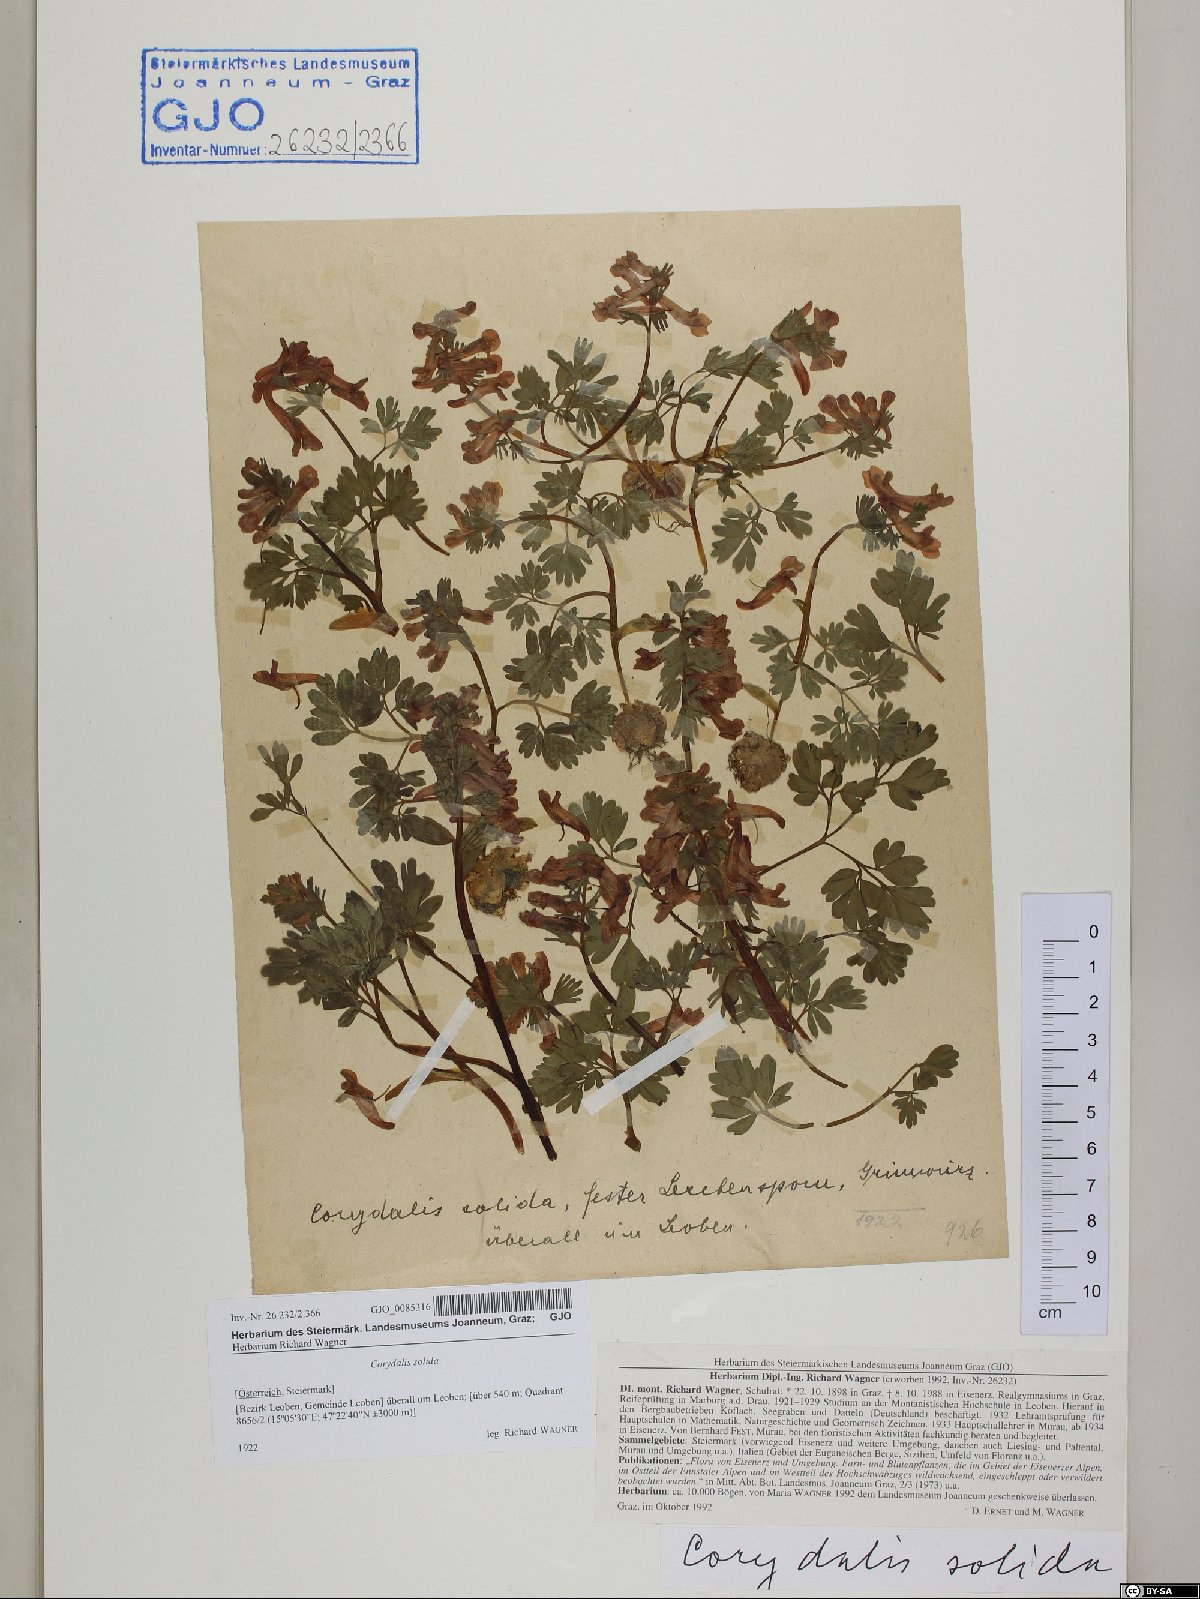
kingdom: Plantae
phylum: Tracheophyta
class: Magnoliopsida
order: Ranunculales
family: Papaveraceae
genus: Corydalis
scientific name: Corydalis solida
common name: Bird-in-a-bush
